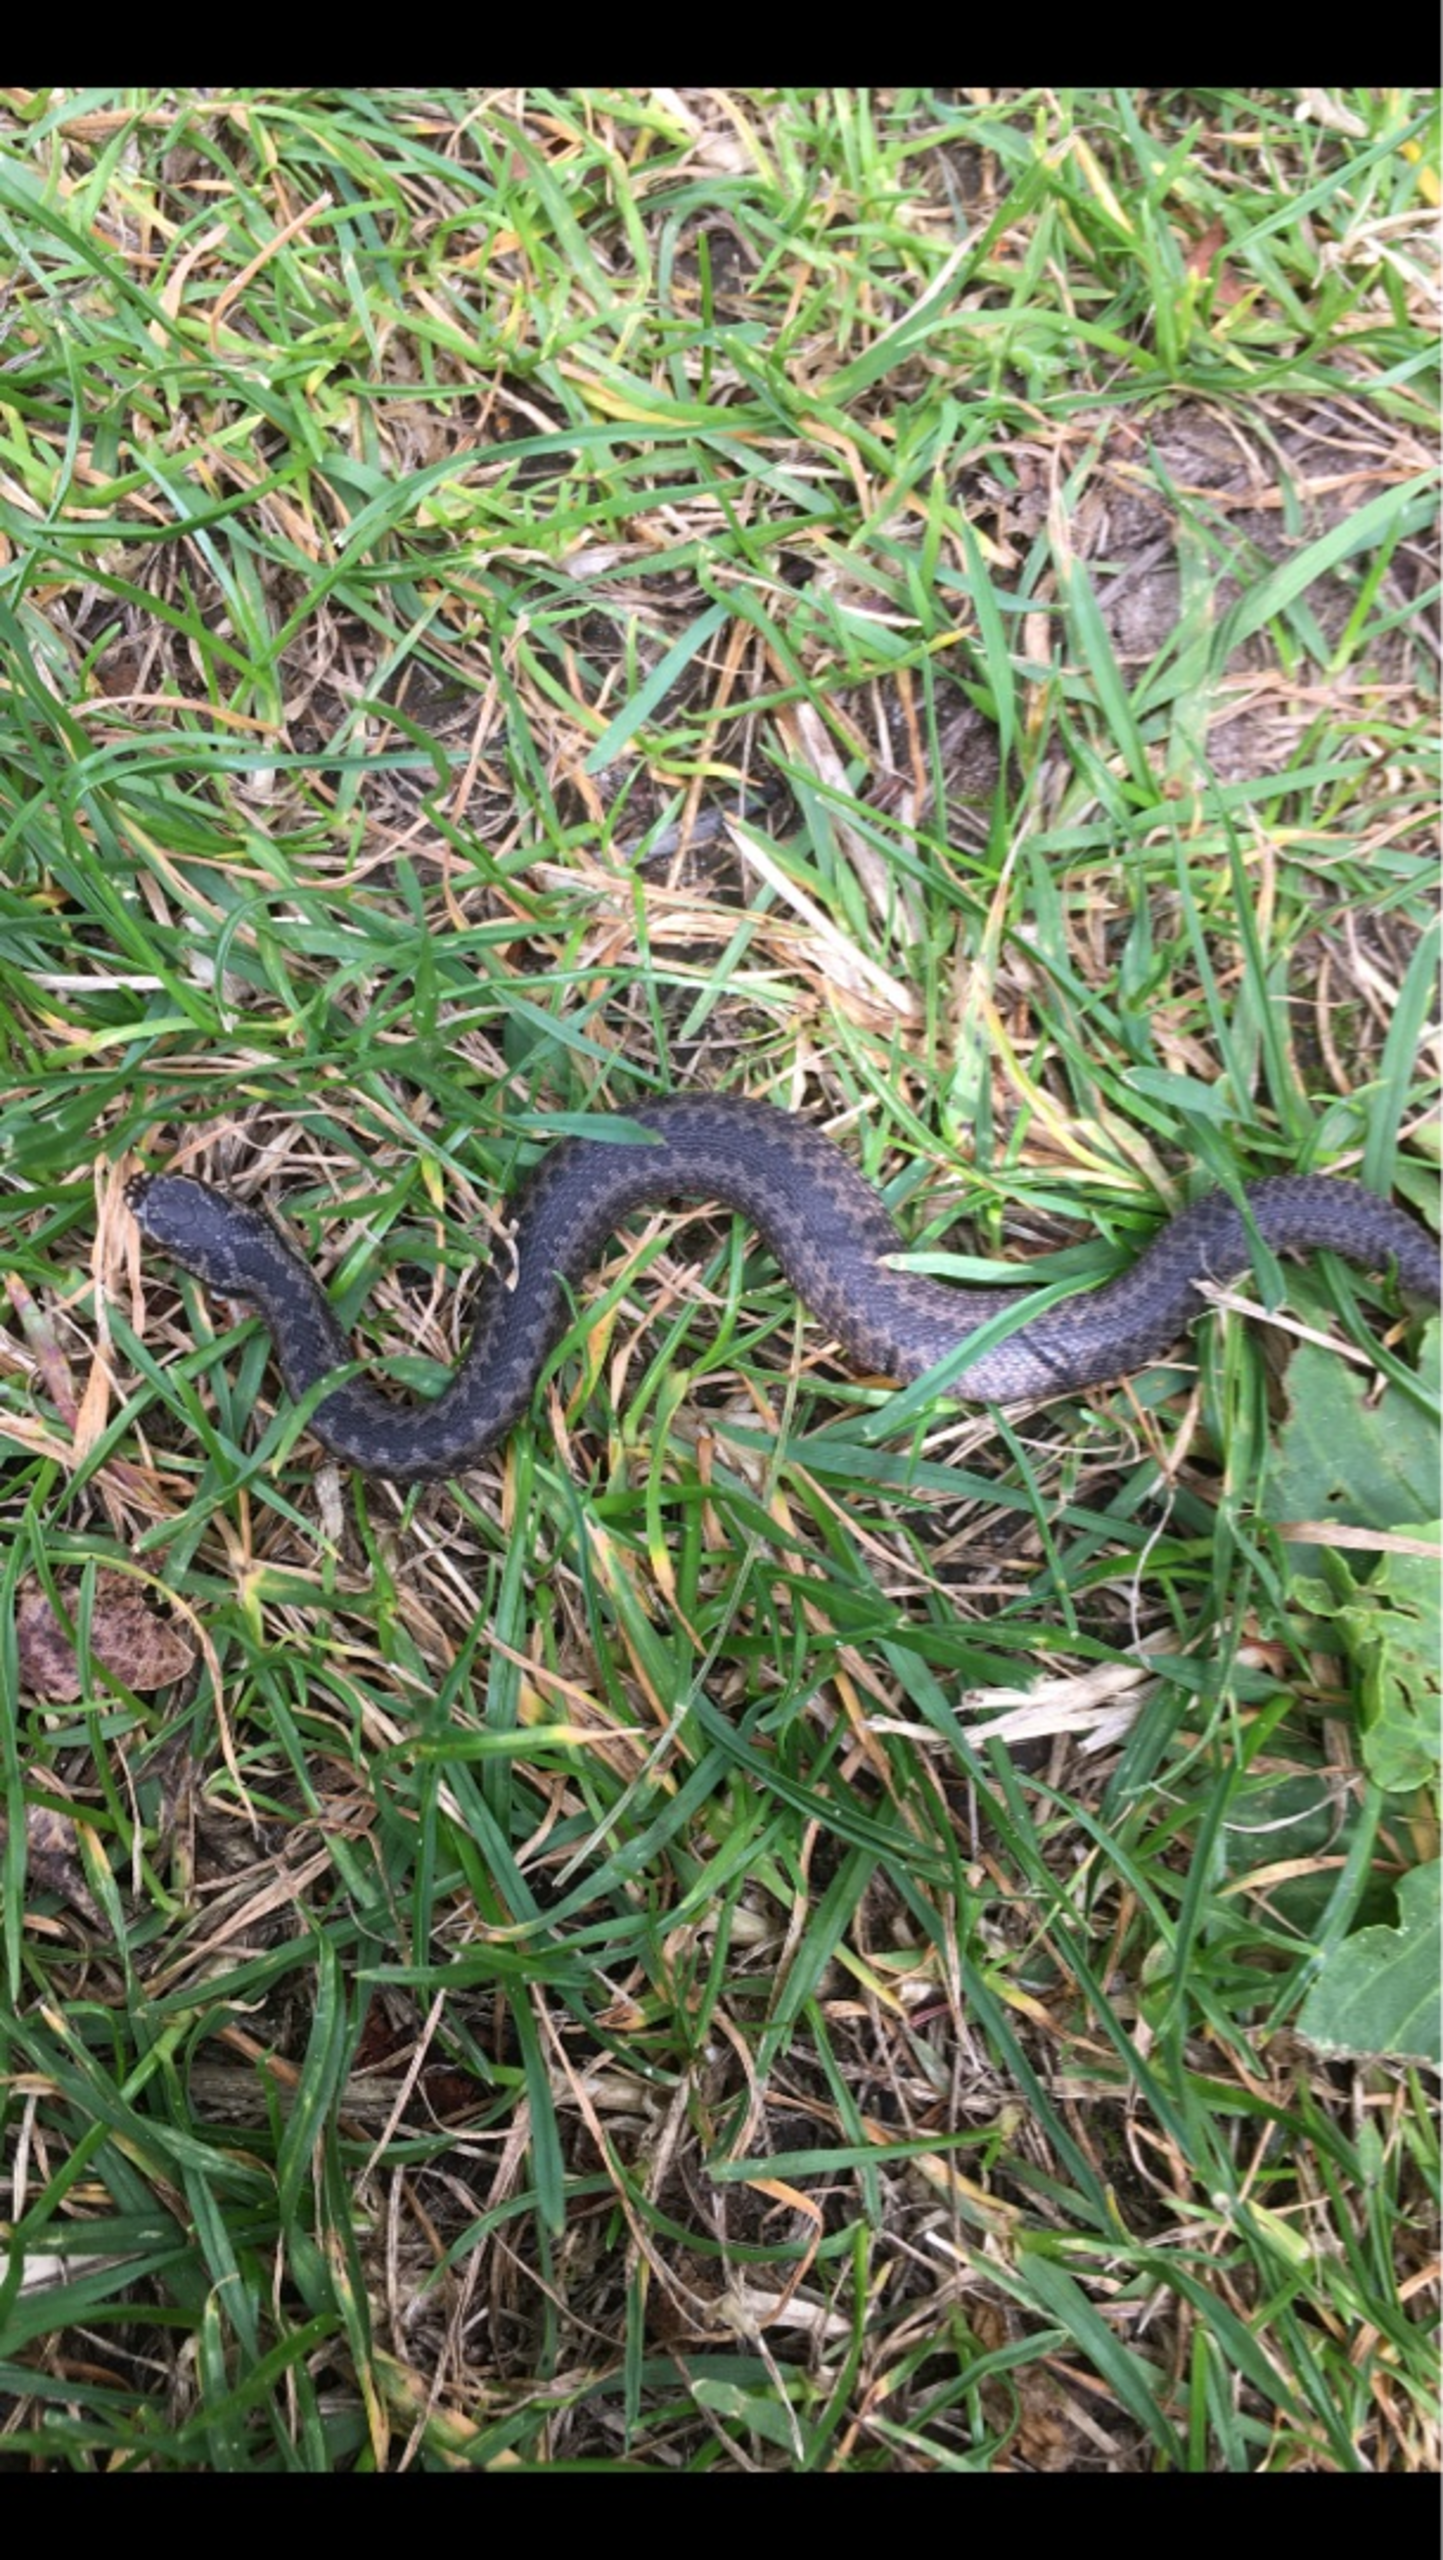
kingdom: Animalia
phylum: Chordata
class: Squamata
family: Viperidae
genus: Vipera
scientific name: Vipera berus
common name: Hugorm
